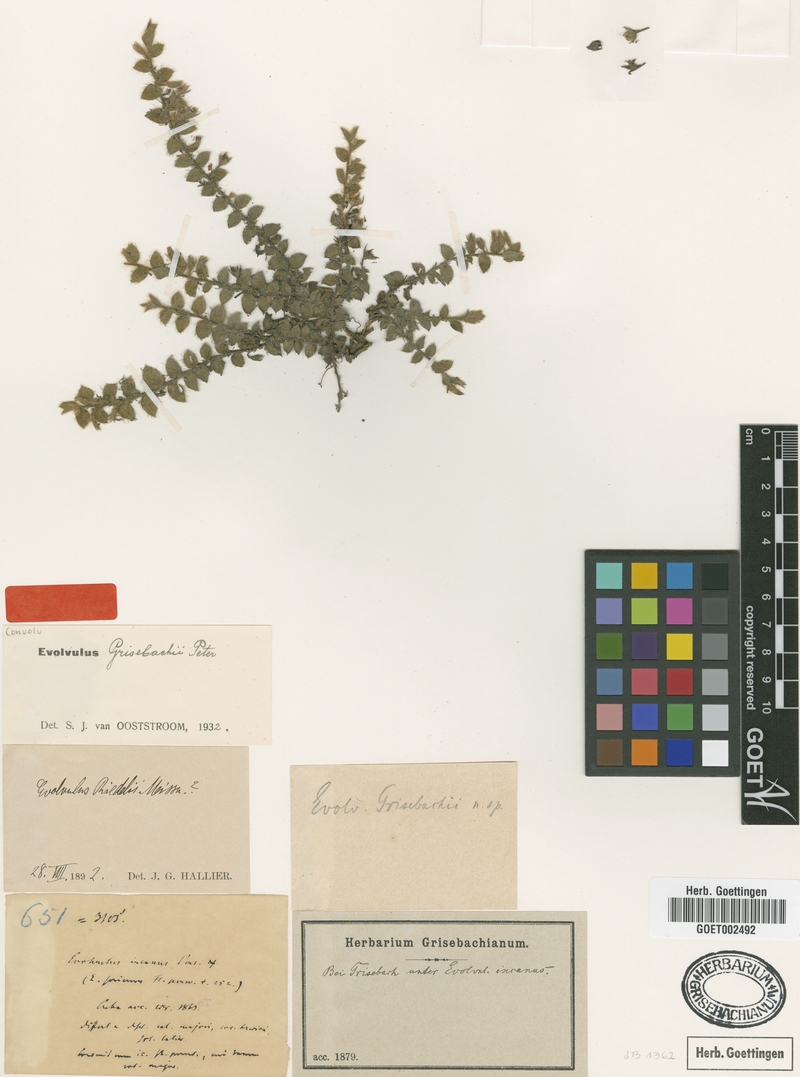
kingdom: Plantae
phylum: Tracheophyta
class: Magnoliopsida
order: Solanales
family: Convolvulaceae
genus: Evolvulus
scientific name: Evolvulus grisebachii
